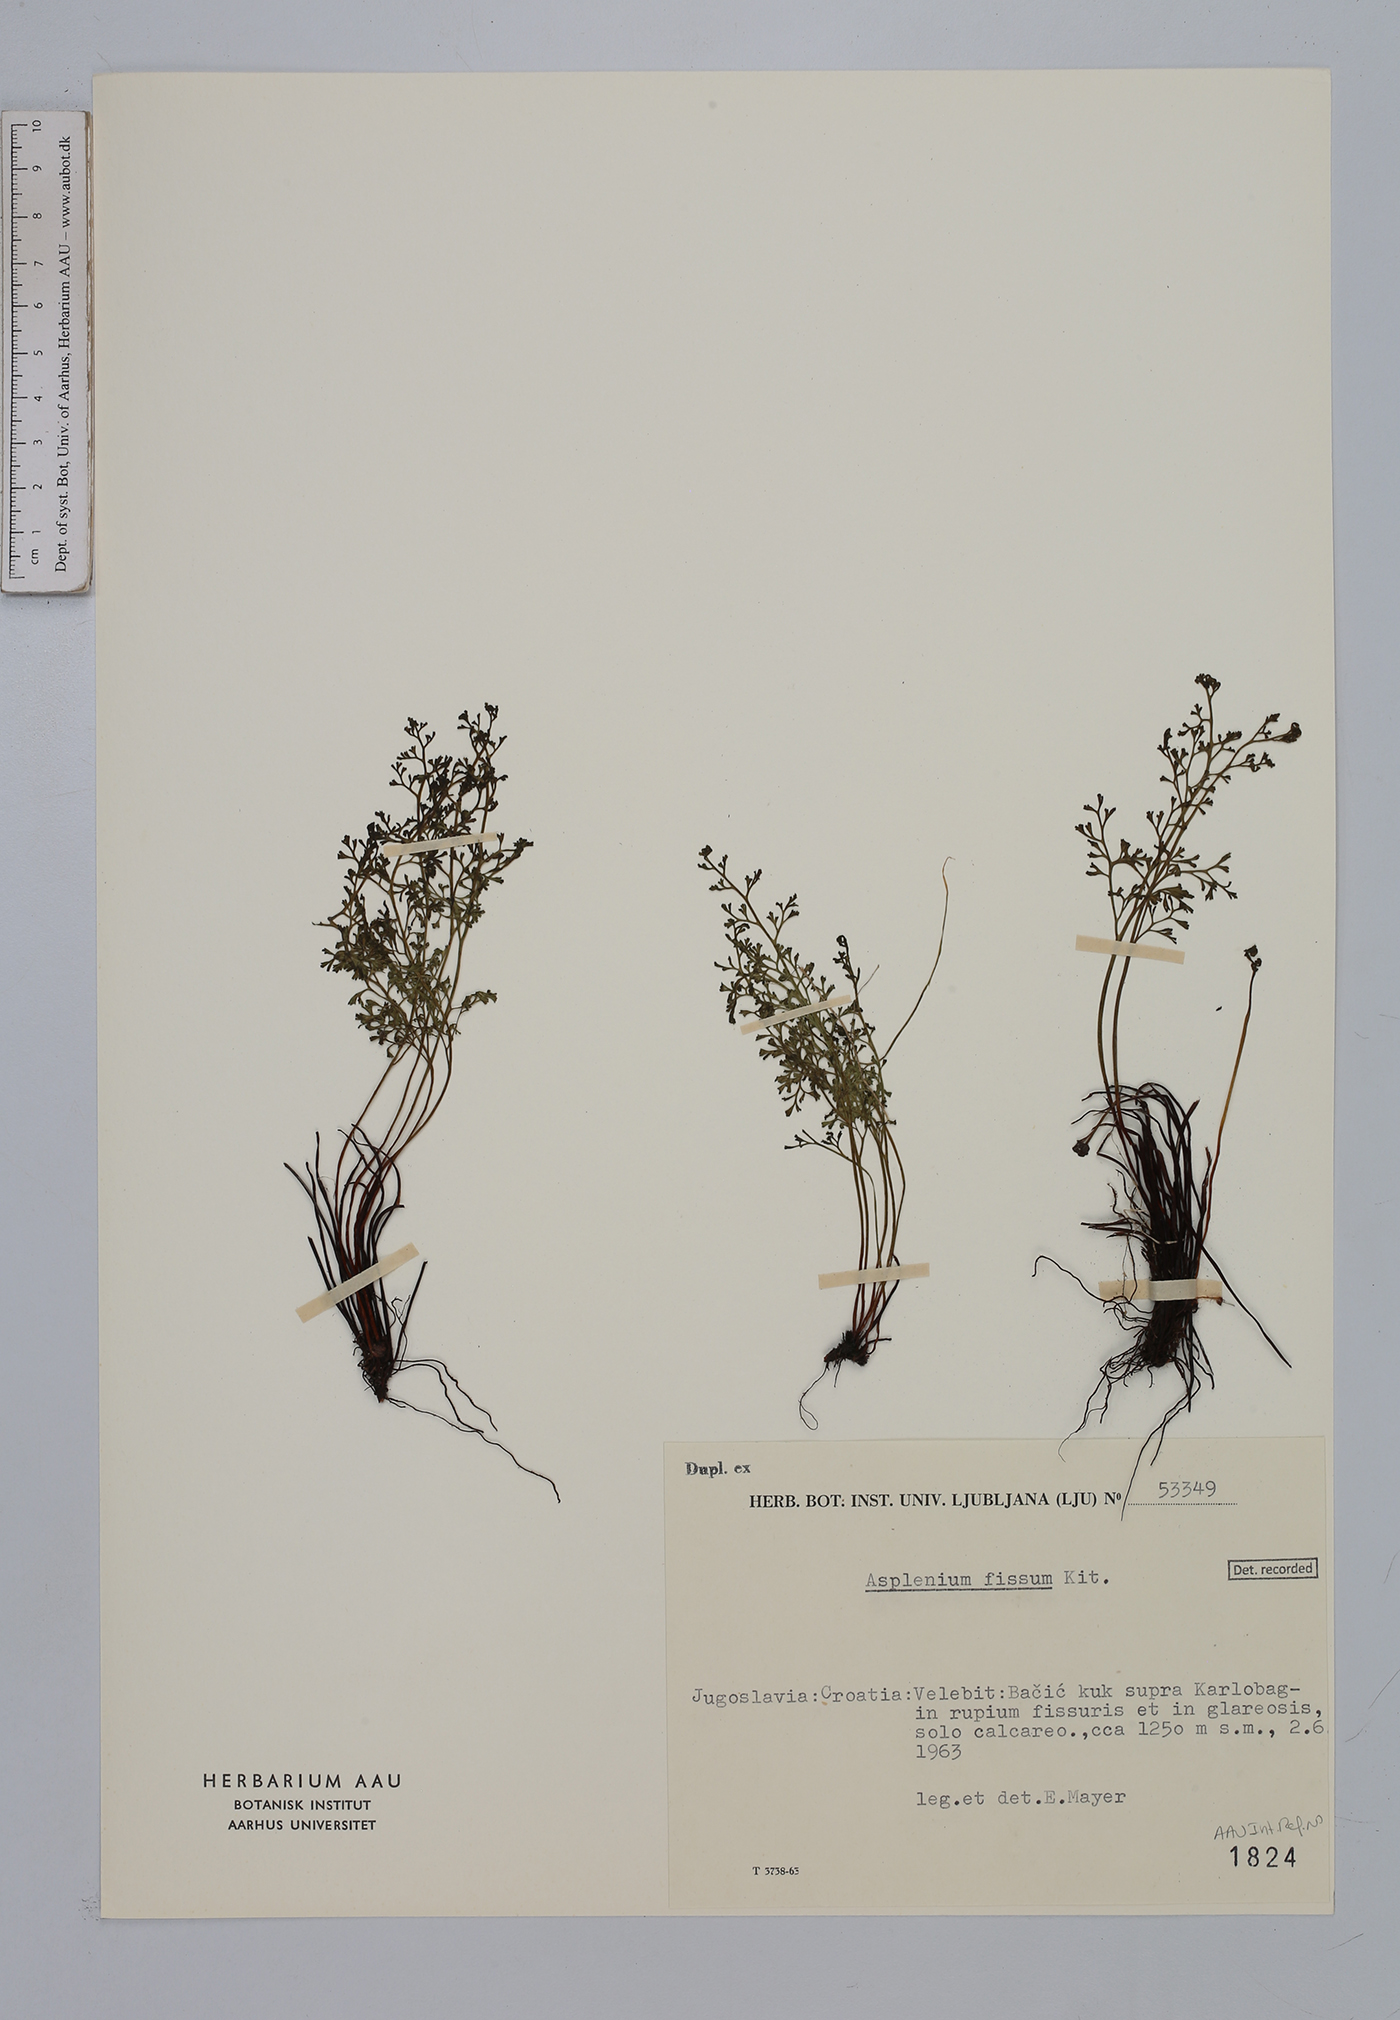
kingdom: Plantae
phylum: Tracheophyta
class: Polypodiopsida
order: Polypodiales
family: Aspleniaceae
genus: Asplenium
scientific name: Asplenium fissum
